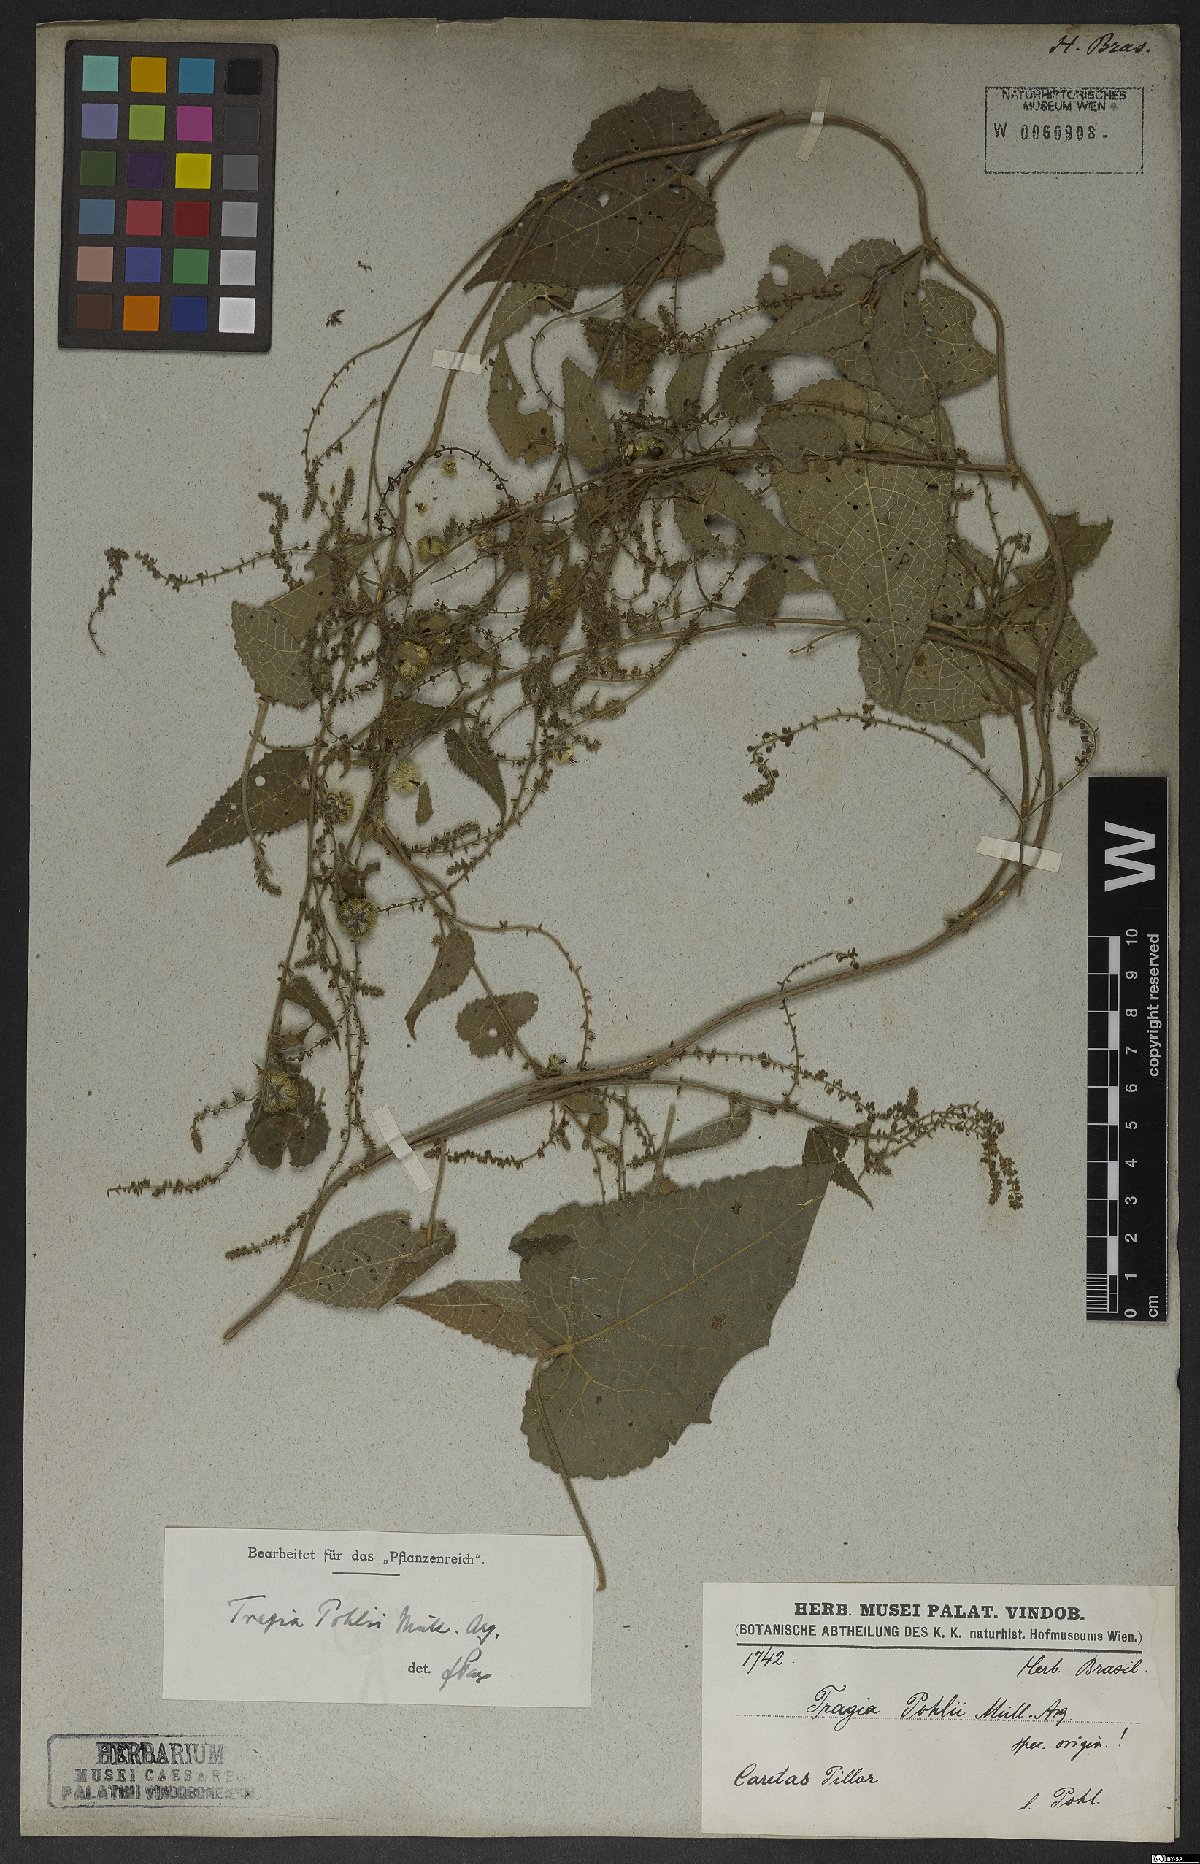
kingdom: Plantae
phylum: Tracheophyta
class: Magnoliopsida
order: Malpighiales
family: Euphorbiaceae
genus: Tragia
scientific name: Tragia chlorocaulon
